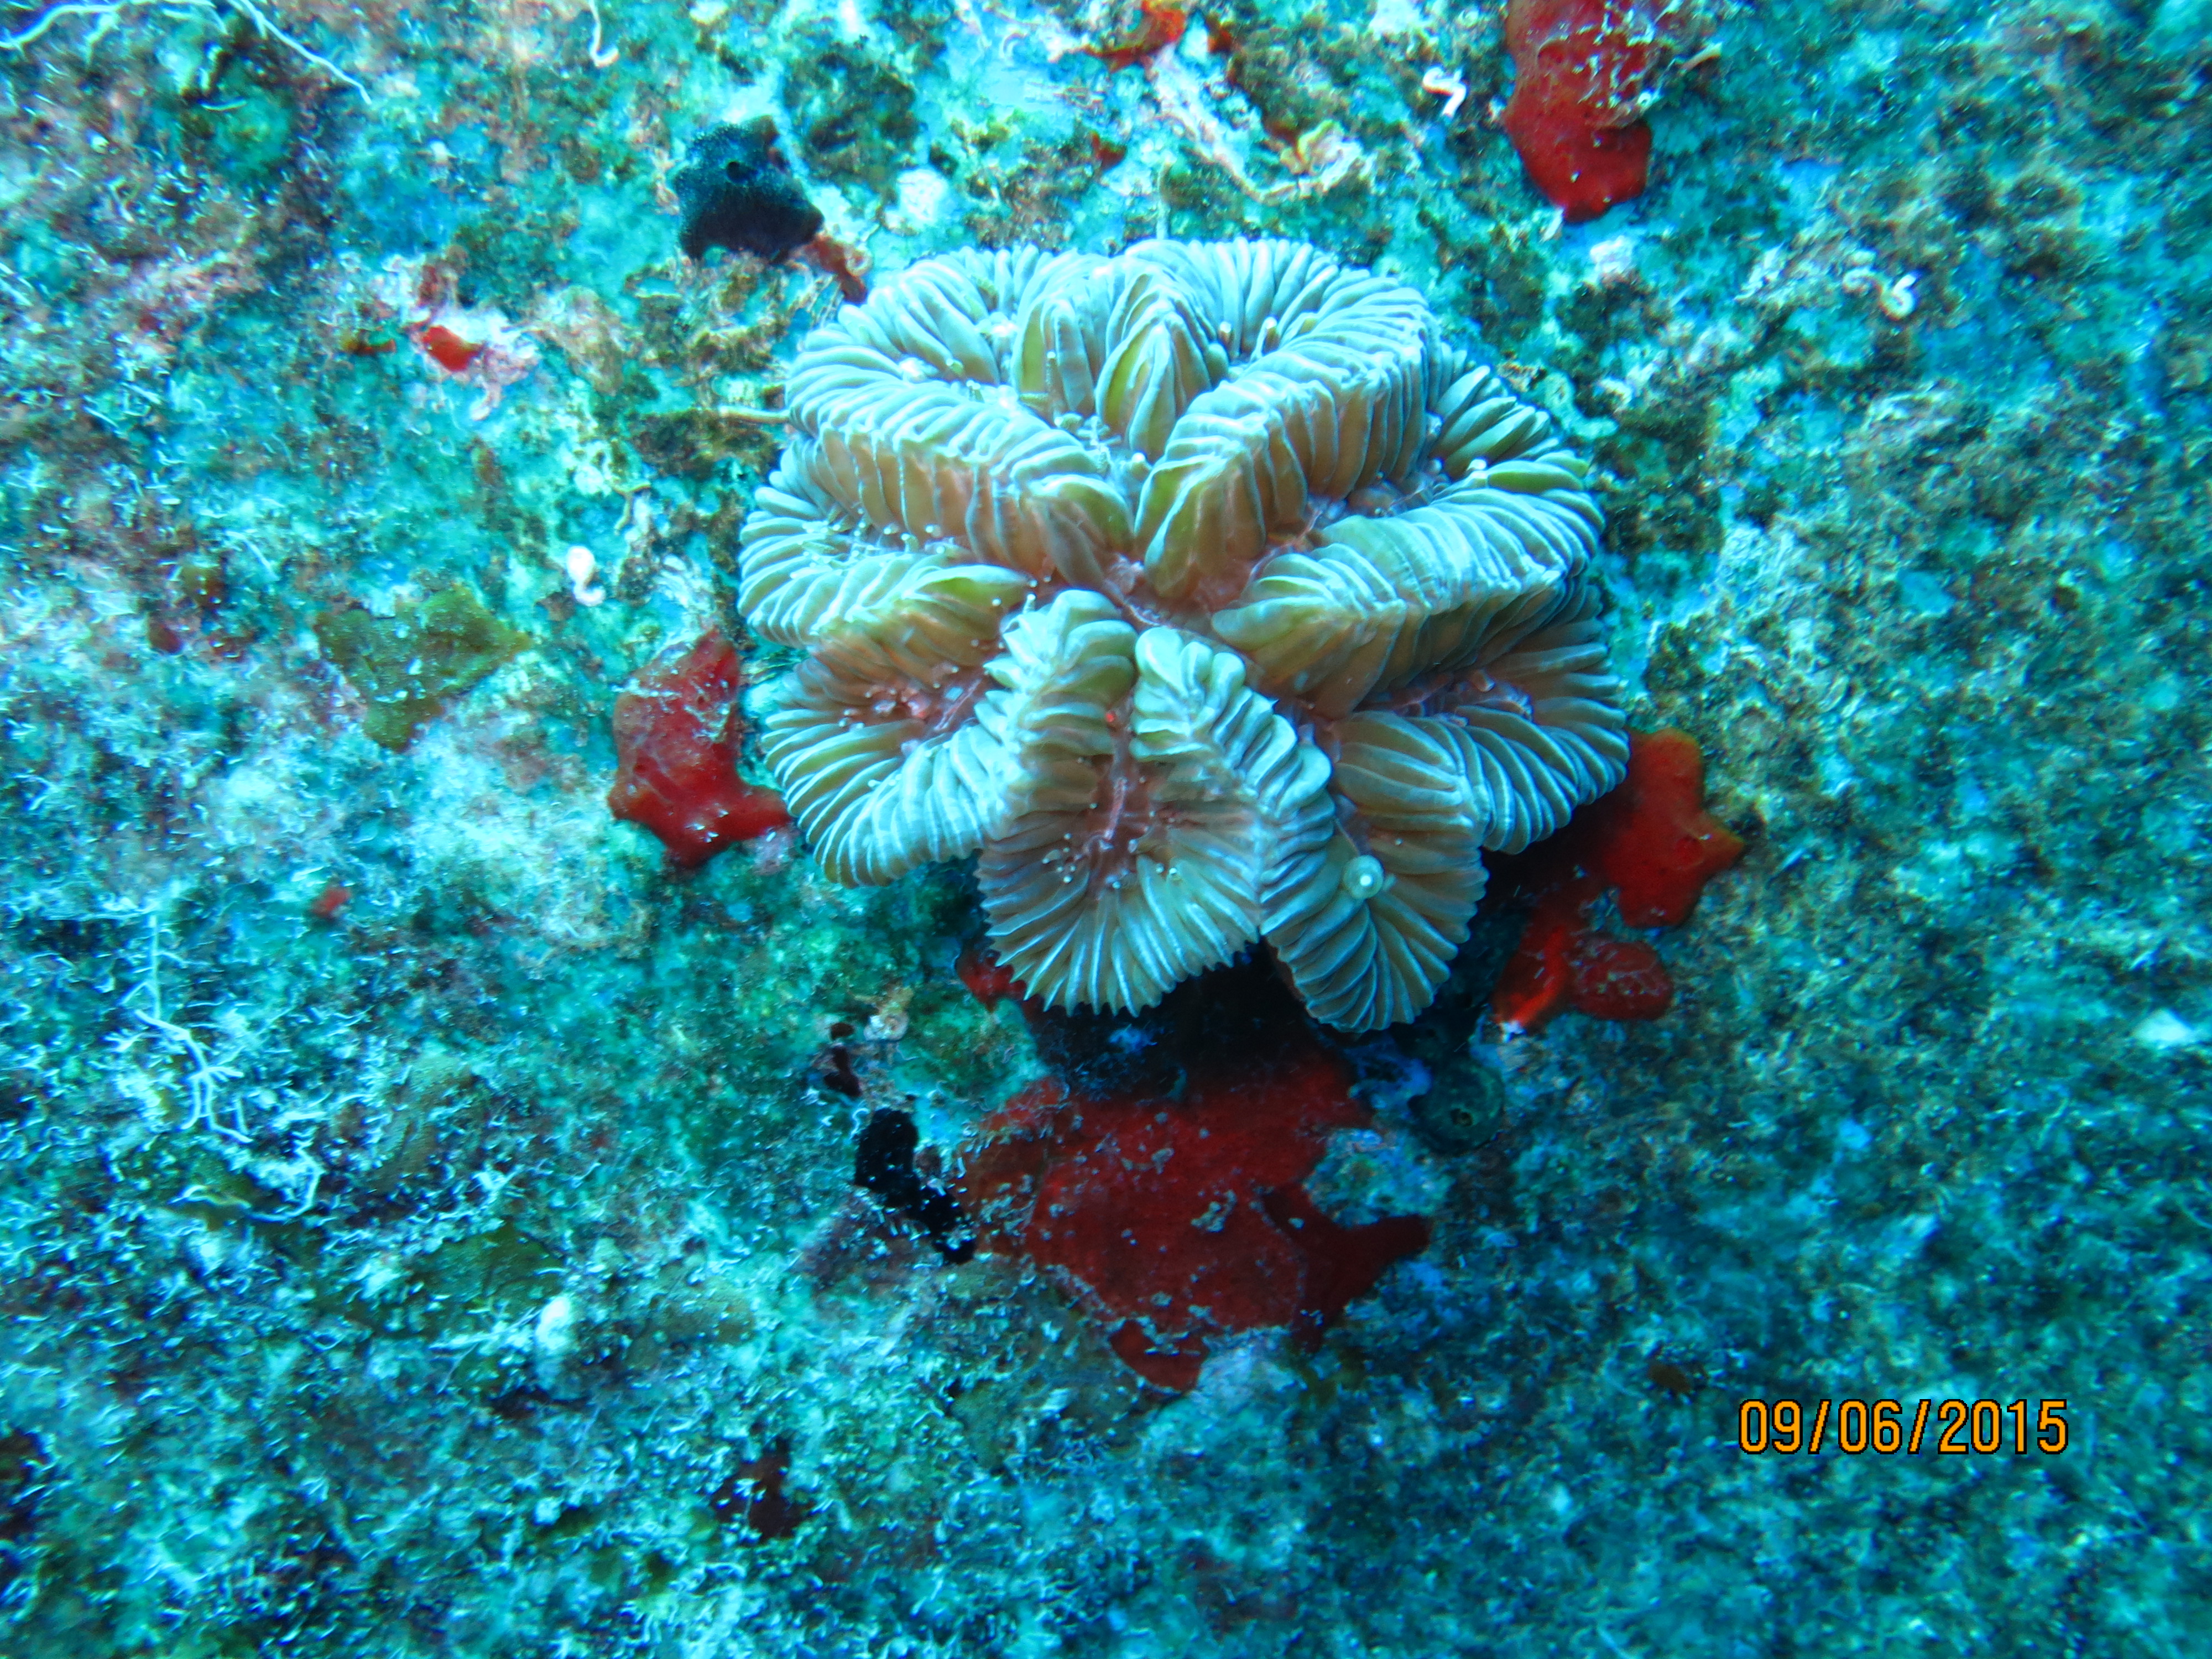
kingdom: Animalia
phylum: Cnidaria
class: Anthozoa
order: Scleractinia
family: Meandrinidae
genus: Meandrina
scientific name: Meandrina meandrites
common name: Maze coral
